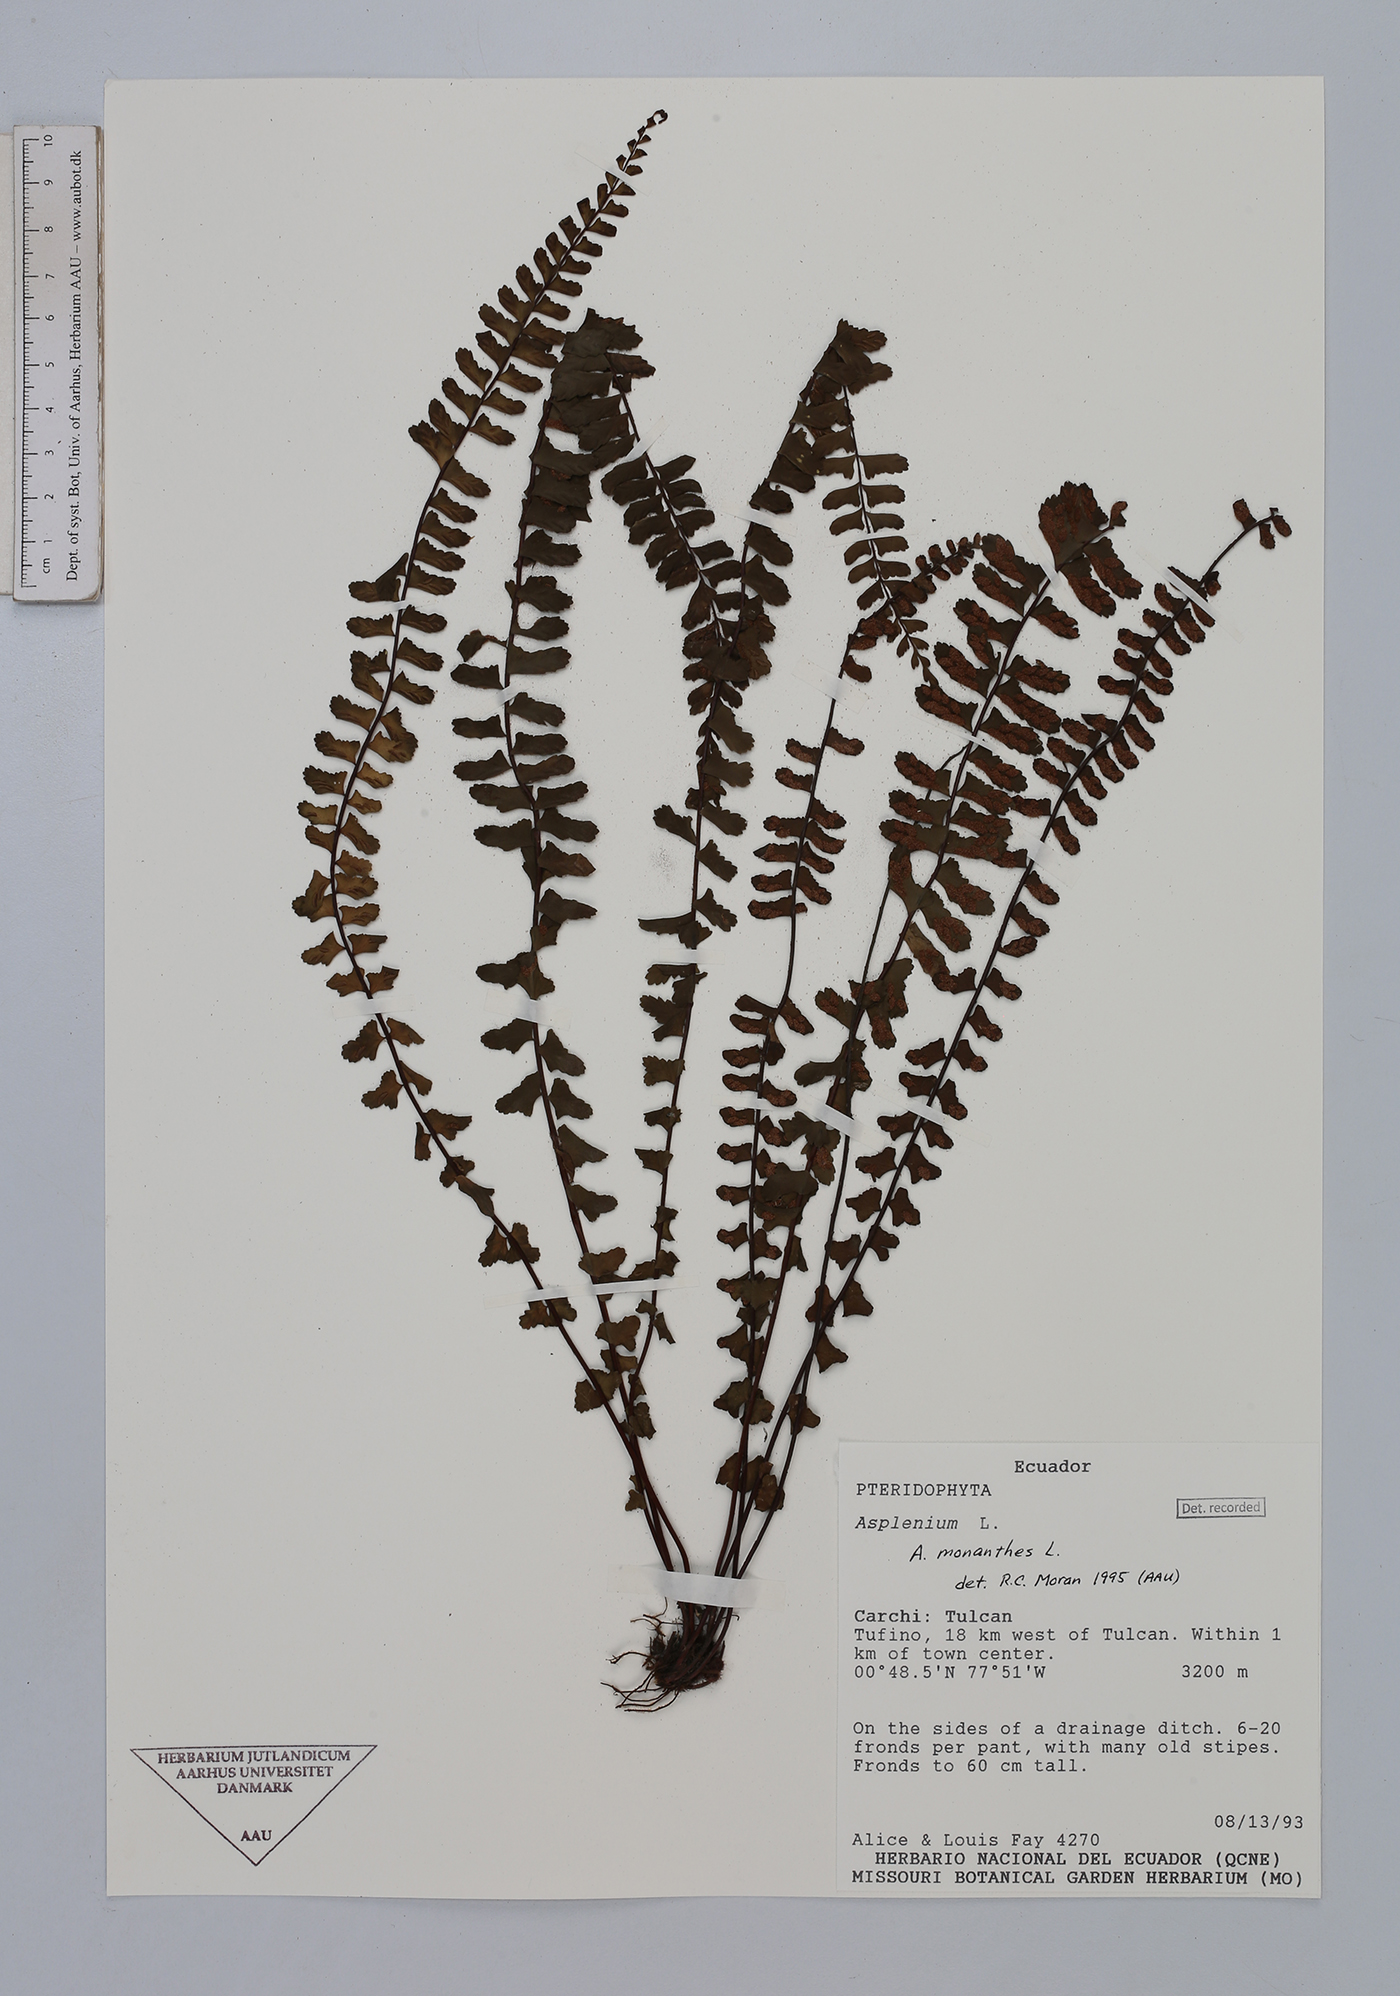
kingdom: Plantae
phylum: Tracheophyta
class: Polypodiopsida
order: Polypodiales
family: Aspleniaceae
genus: Asplenium
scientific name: Asplenium monanthes
